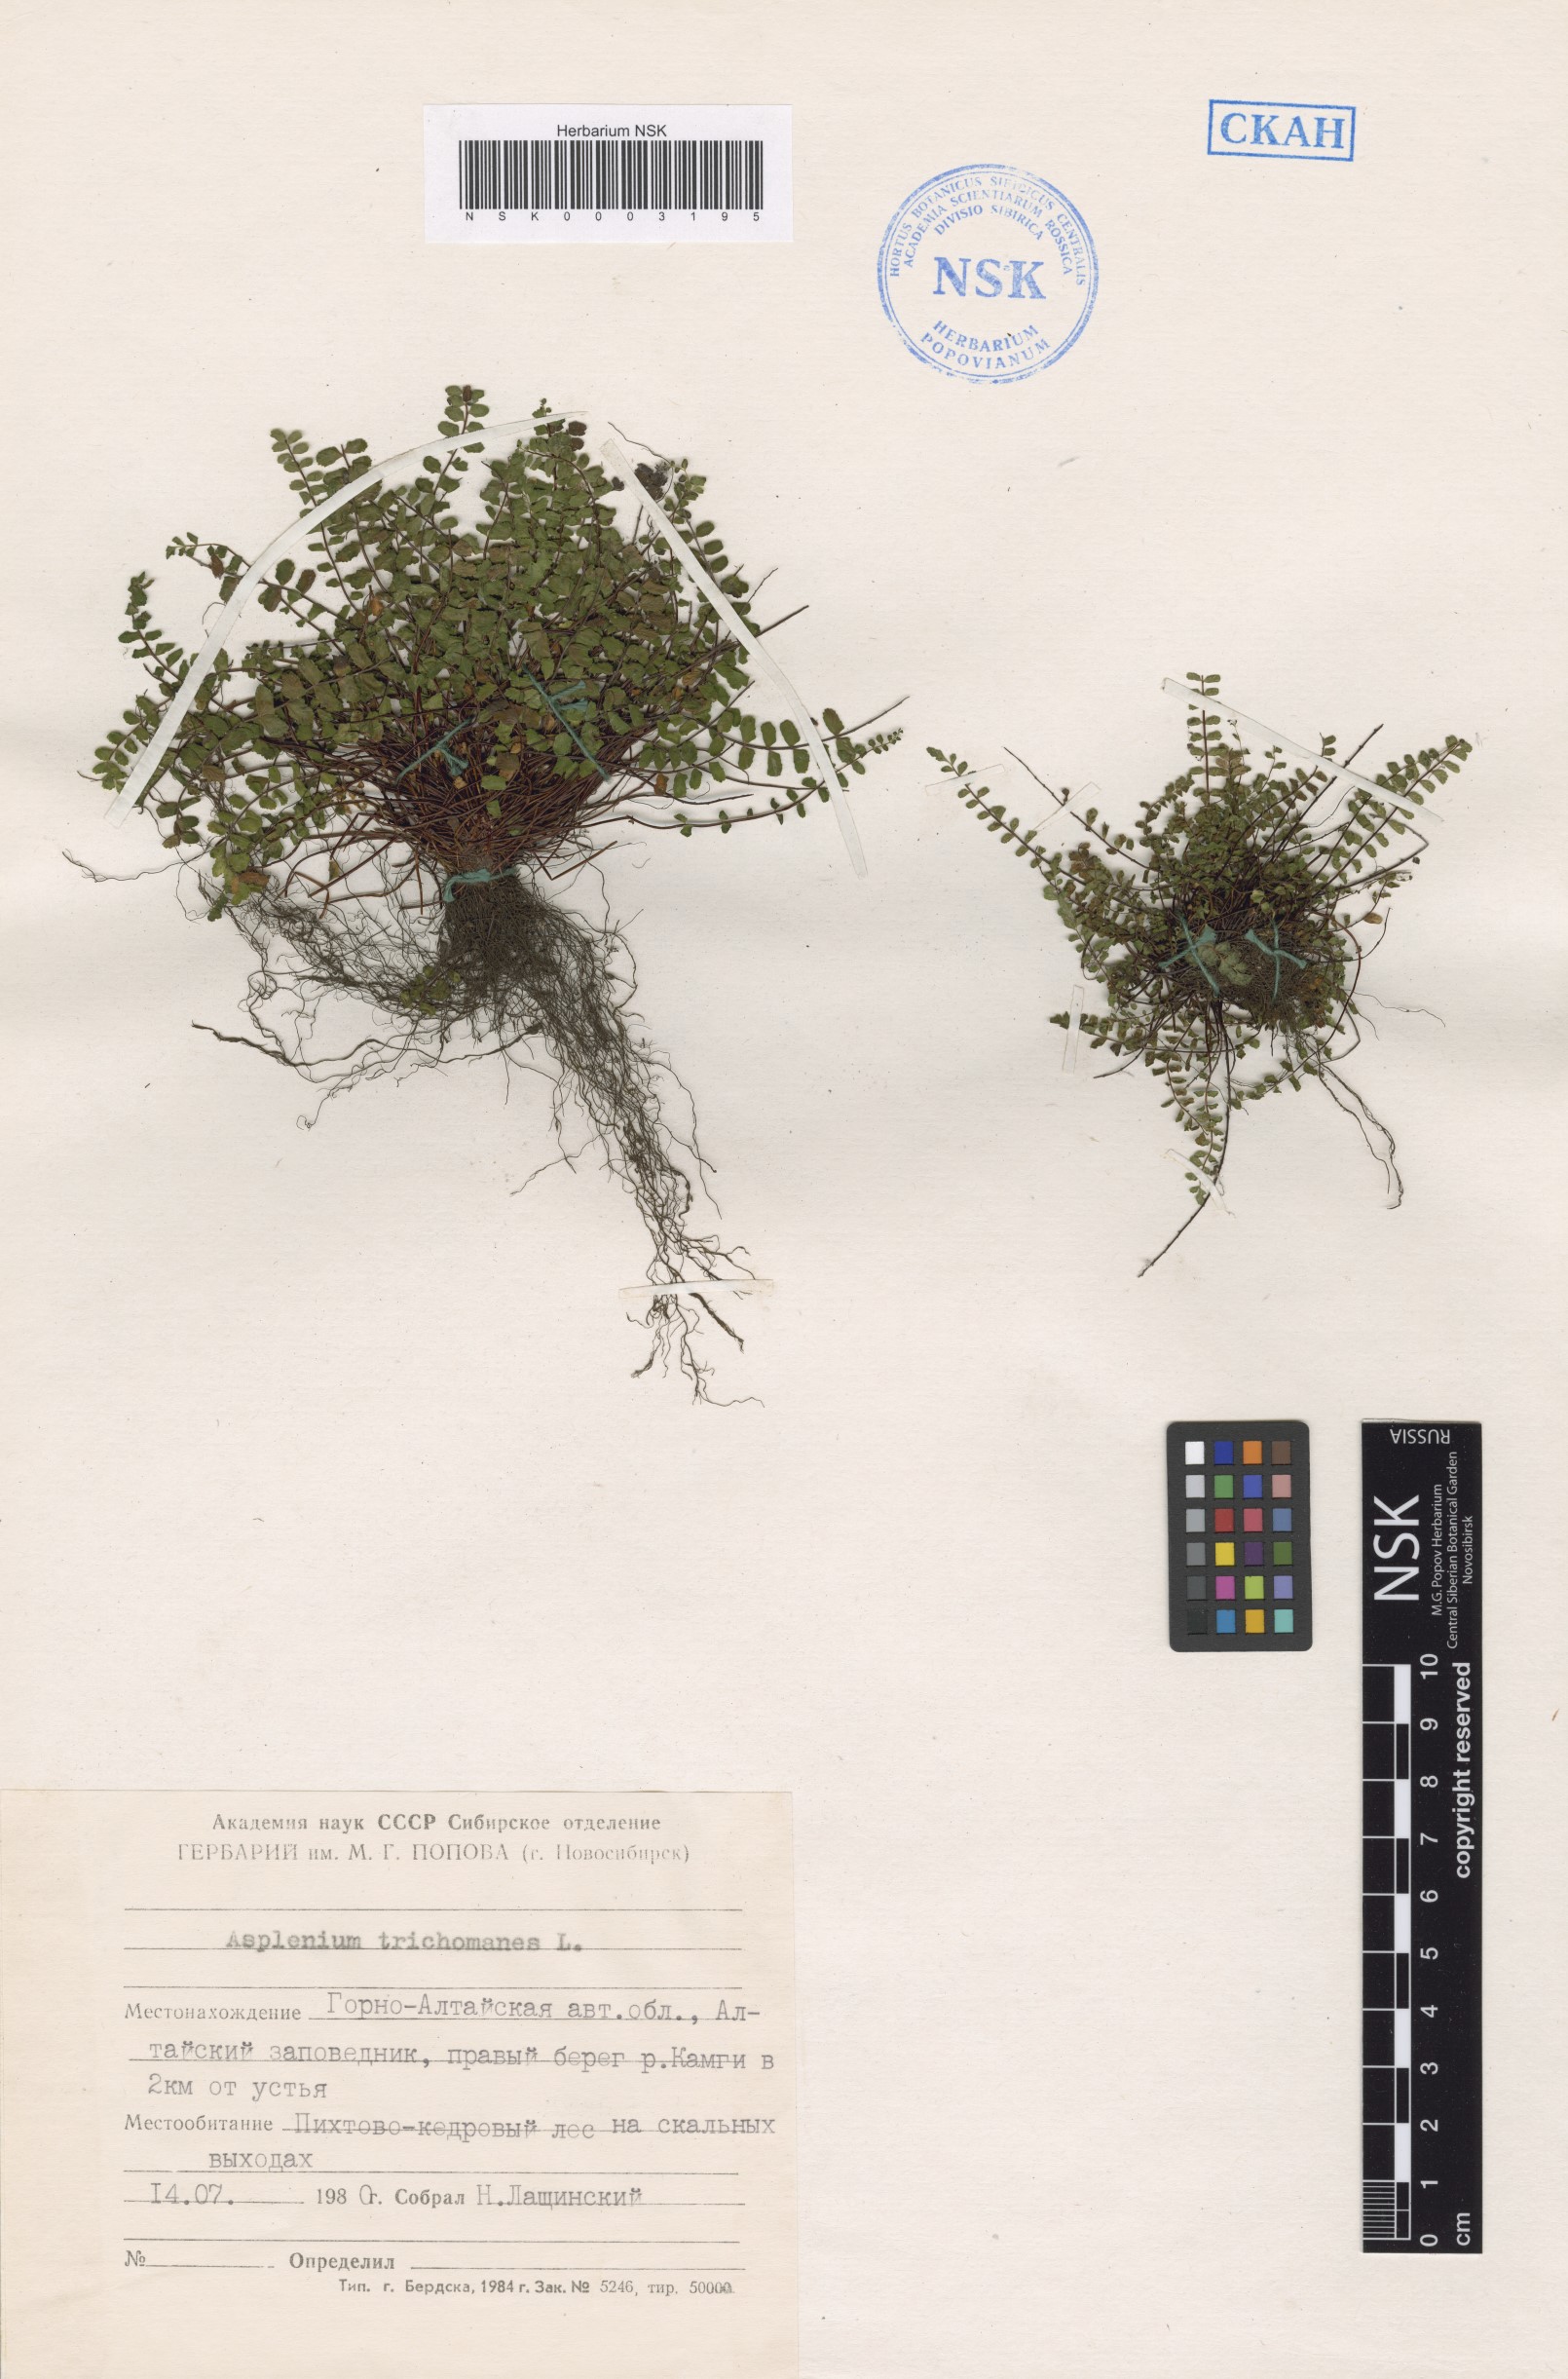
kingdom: Plantae
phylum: Tracheophyta
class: Polypodiopsida
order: Polypodiales
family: Aspleniaceae
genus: Asplenium
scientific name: Asplenium trichomanes
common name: Maidenhair spleenwort
